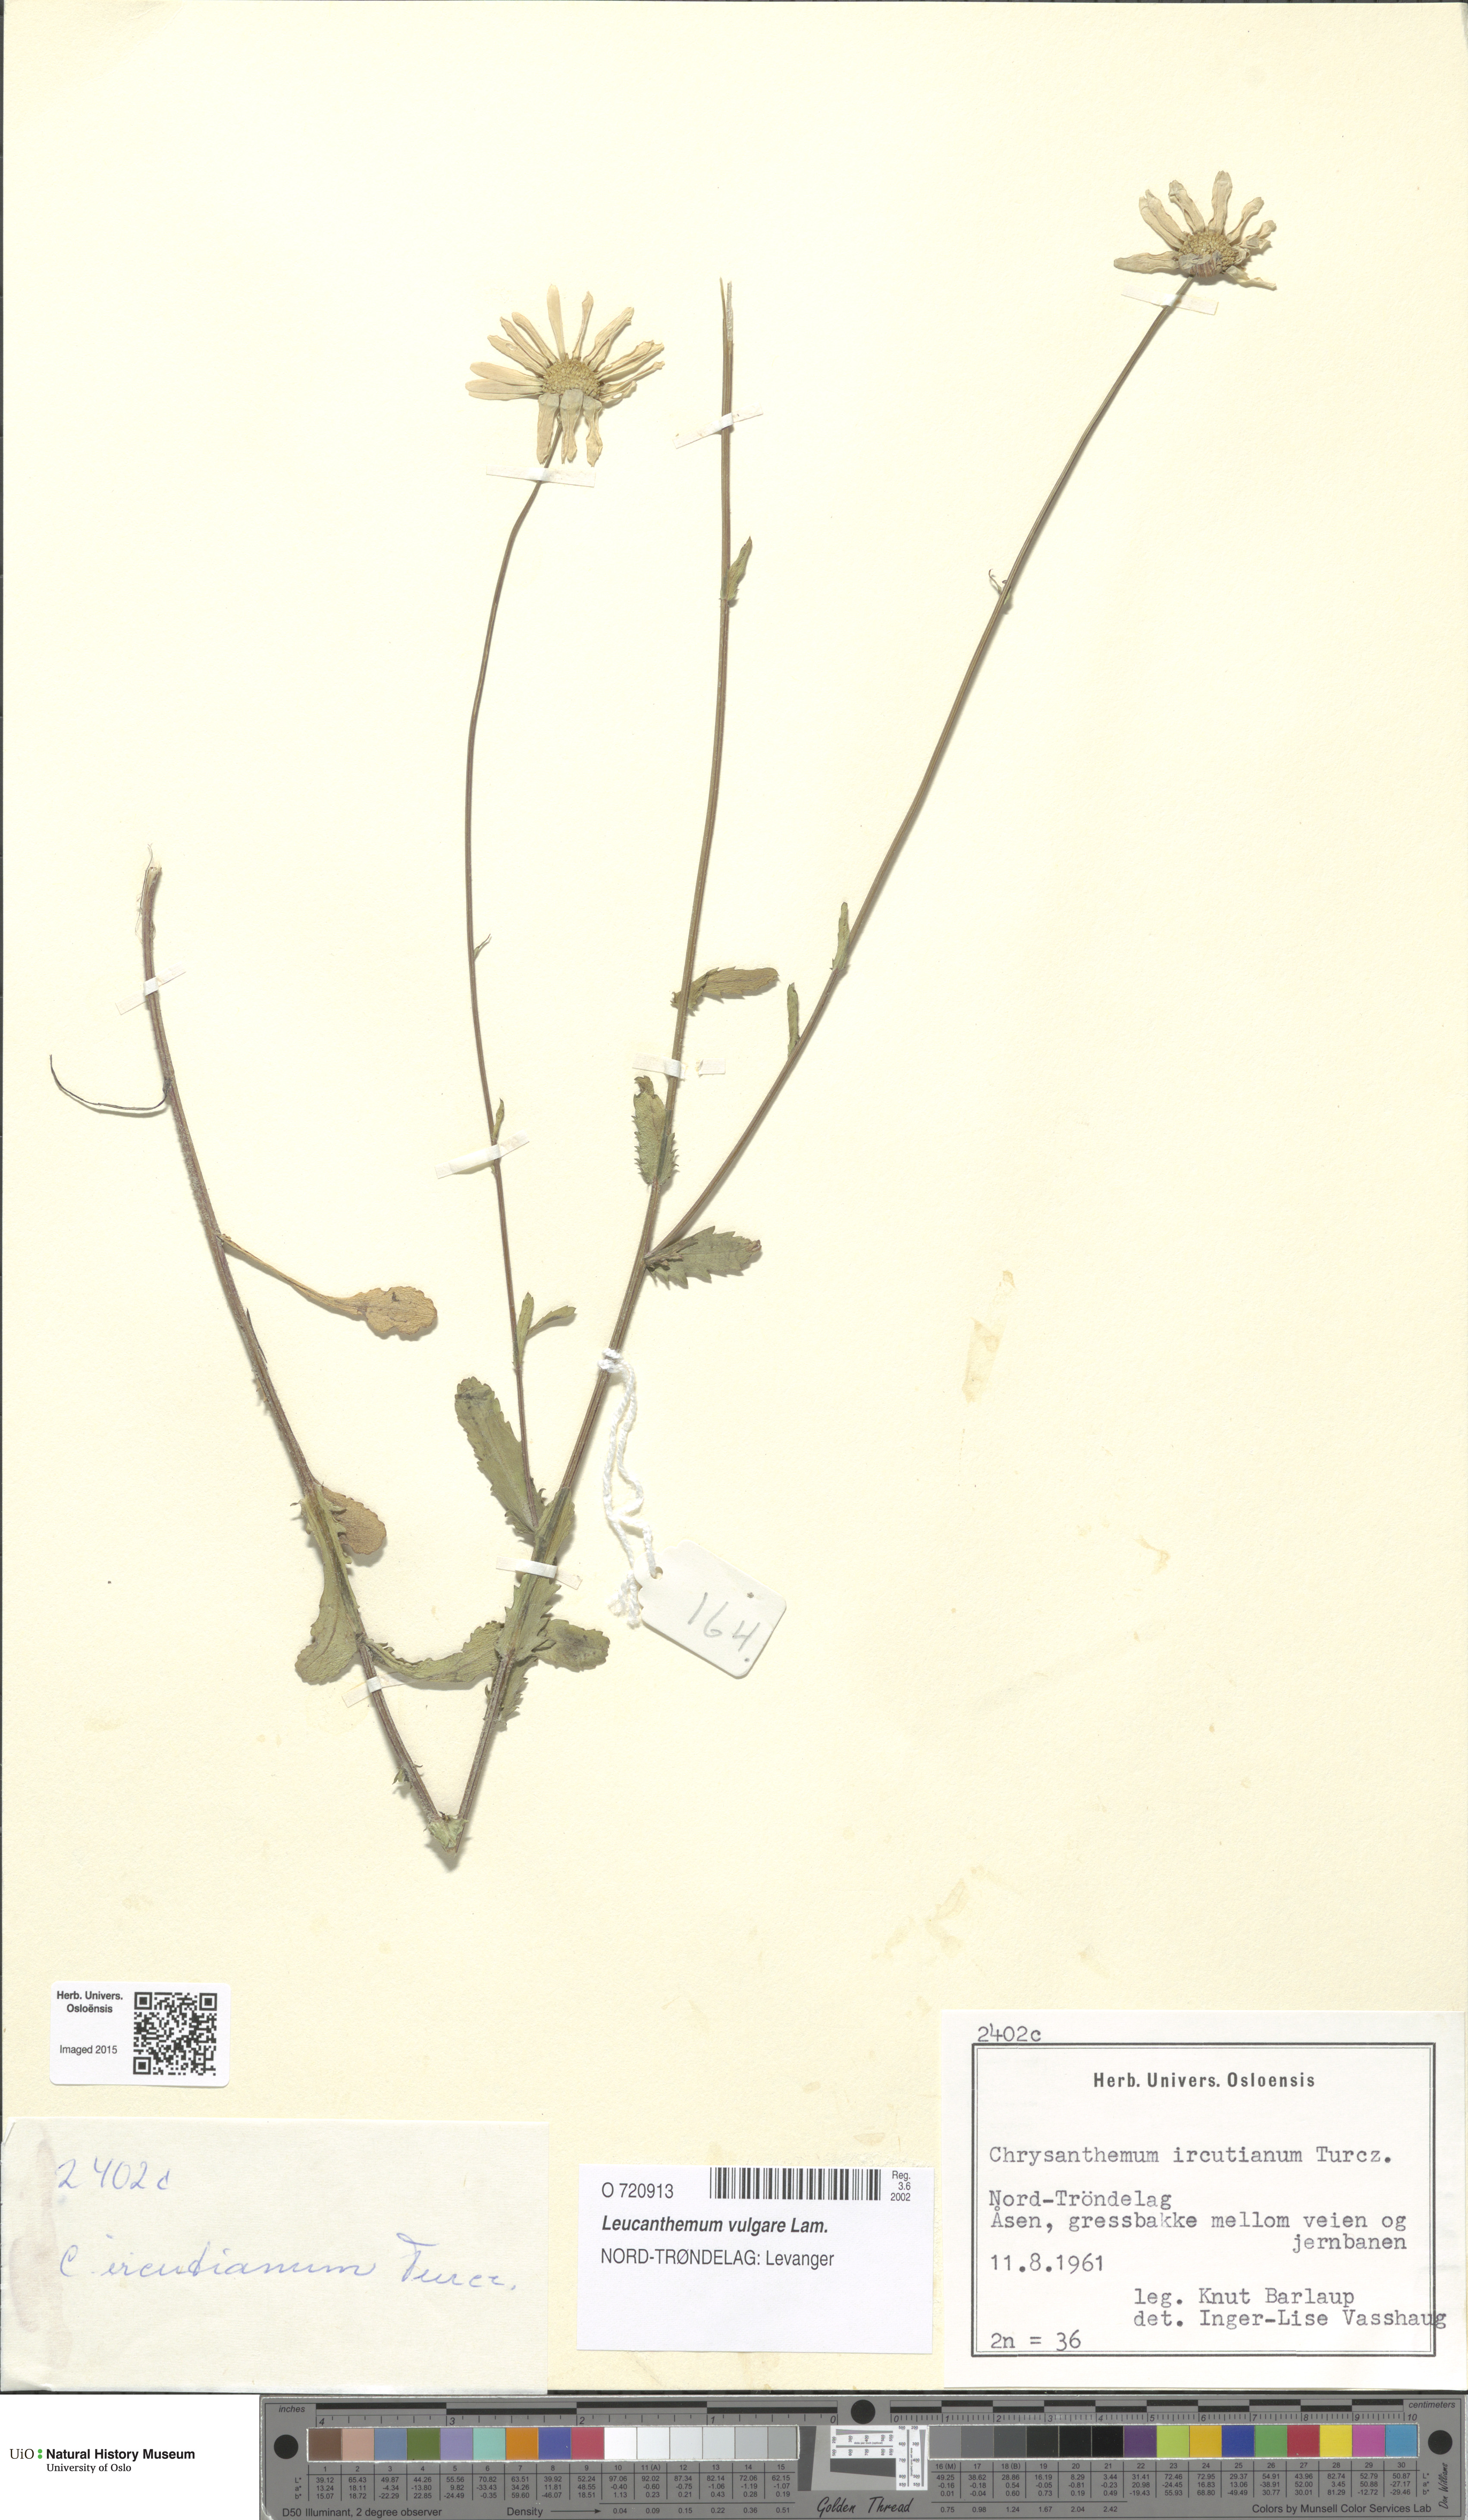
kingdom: Plantae
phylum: Tracheophyta
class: Magnoliopsida
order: Asterales
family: Asteraceae
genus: Leucanthemum
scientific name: Leucanthemum vulgare
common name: Oxeye daisy
